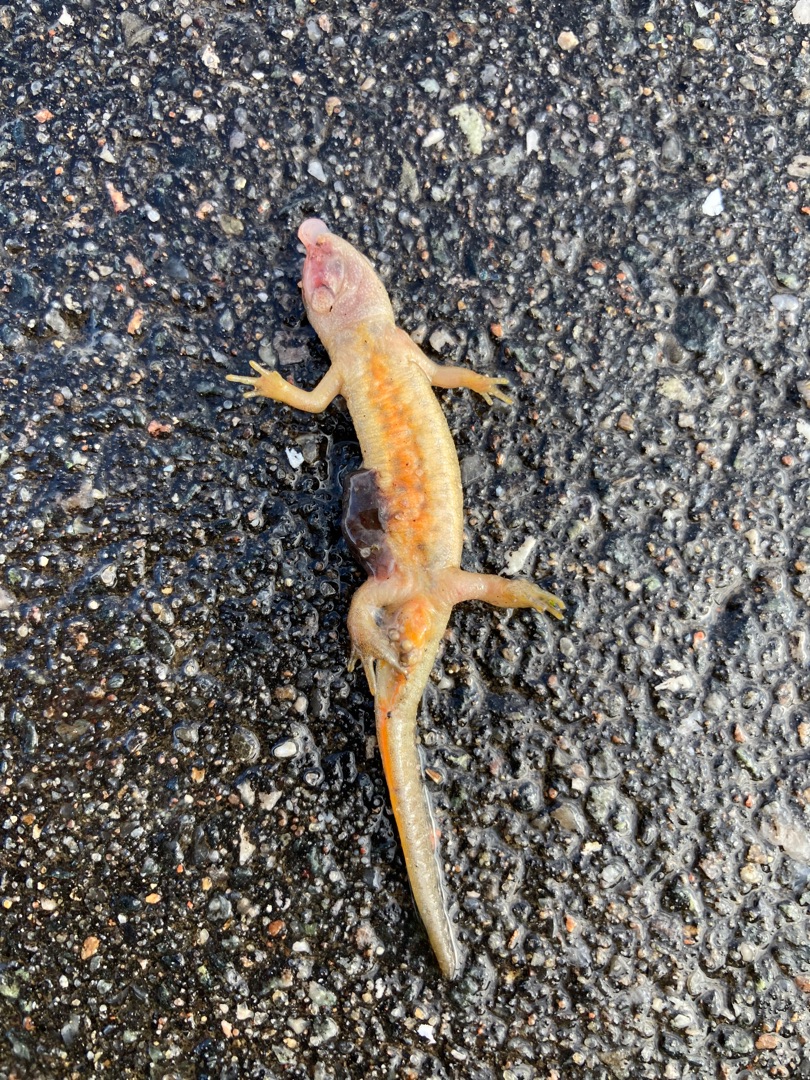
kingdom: Animalia
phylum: Chordata
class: Amphibia
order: Caudata
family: Salamandridae
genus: Lissotriton
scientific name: Lissotriton vulgaris
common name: Lille vandsalamander
